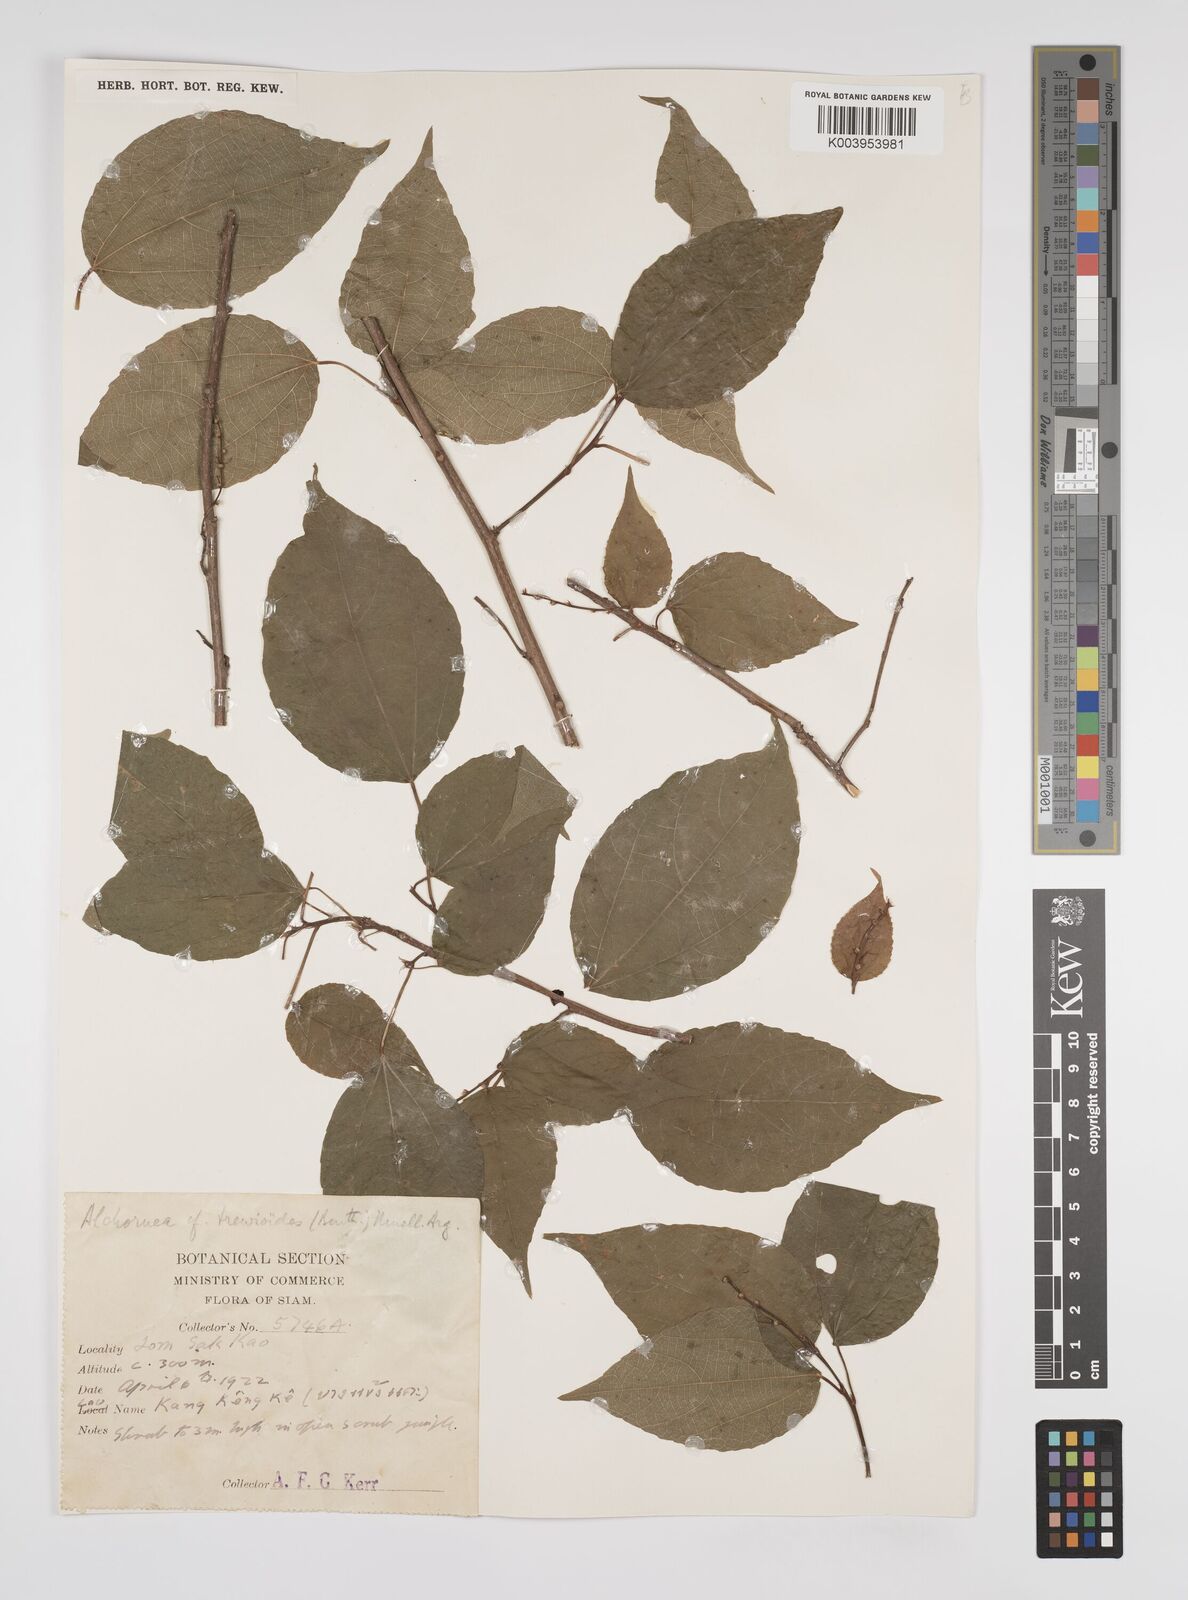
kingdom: Plantae
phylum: Tracheophyta
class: Magnoliopsida
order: Malpighiales
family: Euphorbiaceae
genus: Alchornea
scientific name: Alchornea trewioides
